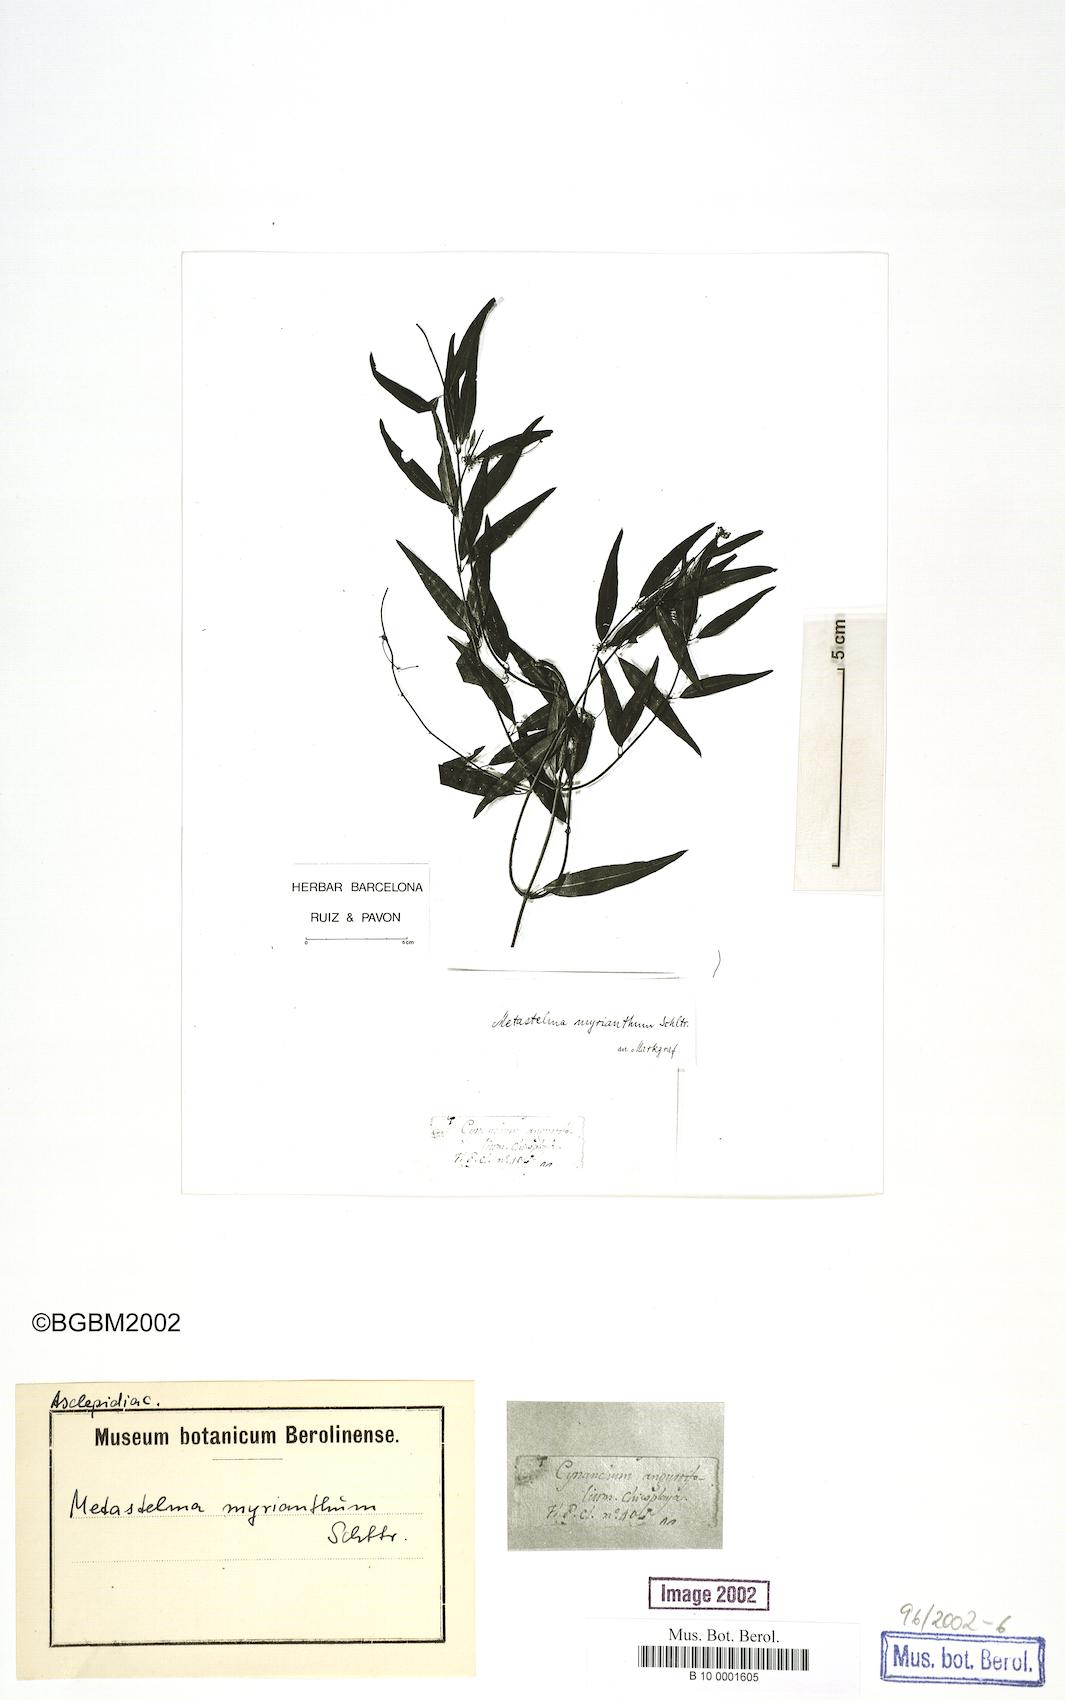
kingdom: Plantae
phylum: Tracheophyta
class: Magnoliopsida
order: Gentianales
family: Apocynaceae
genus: Orthosia
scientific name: Orthosia guilleminiana
